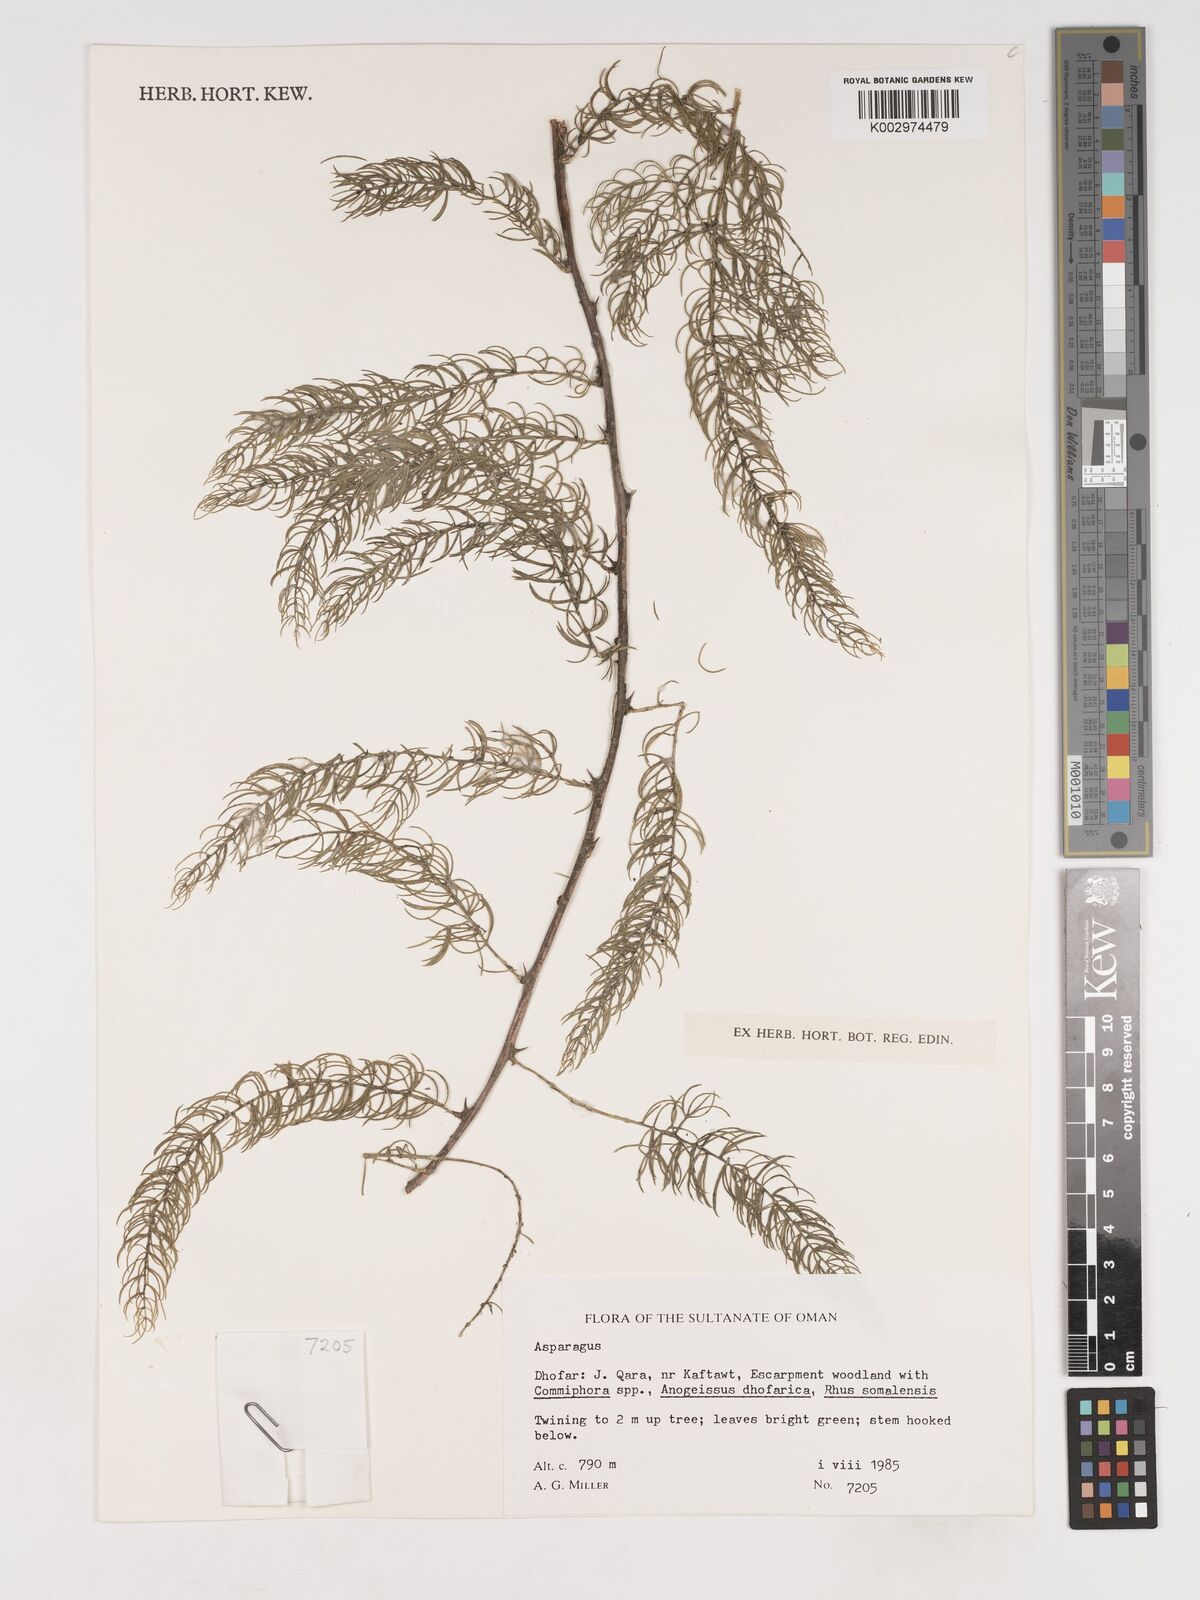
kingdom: Plantae
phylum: Tracheophyta
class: Liliopsida
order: Asparagales
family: Asparagaceae
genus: Asparagus
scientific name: Asparagus
